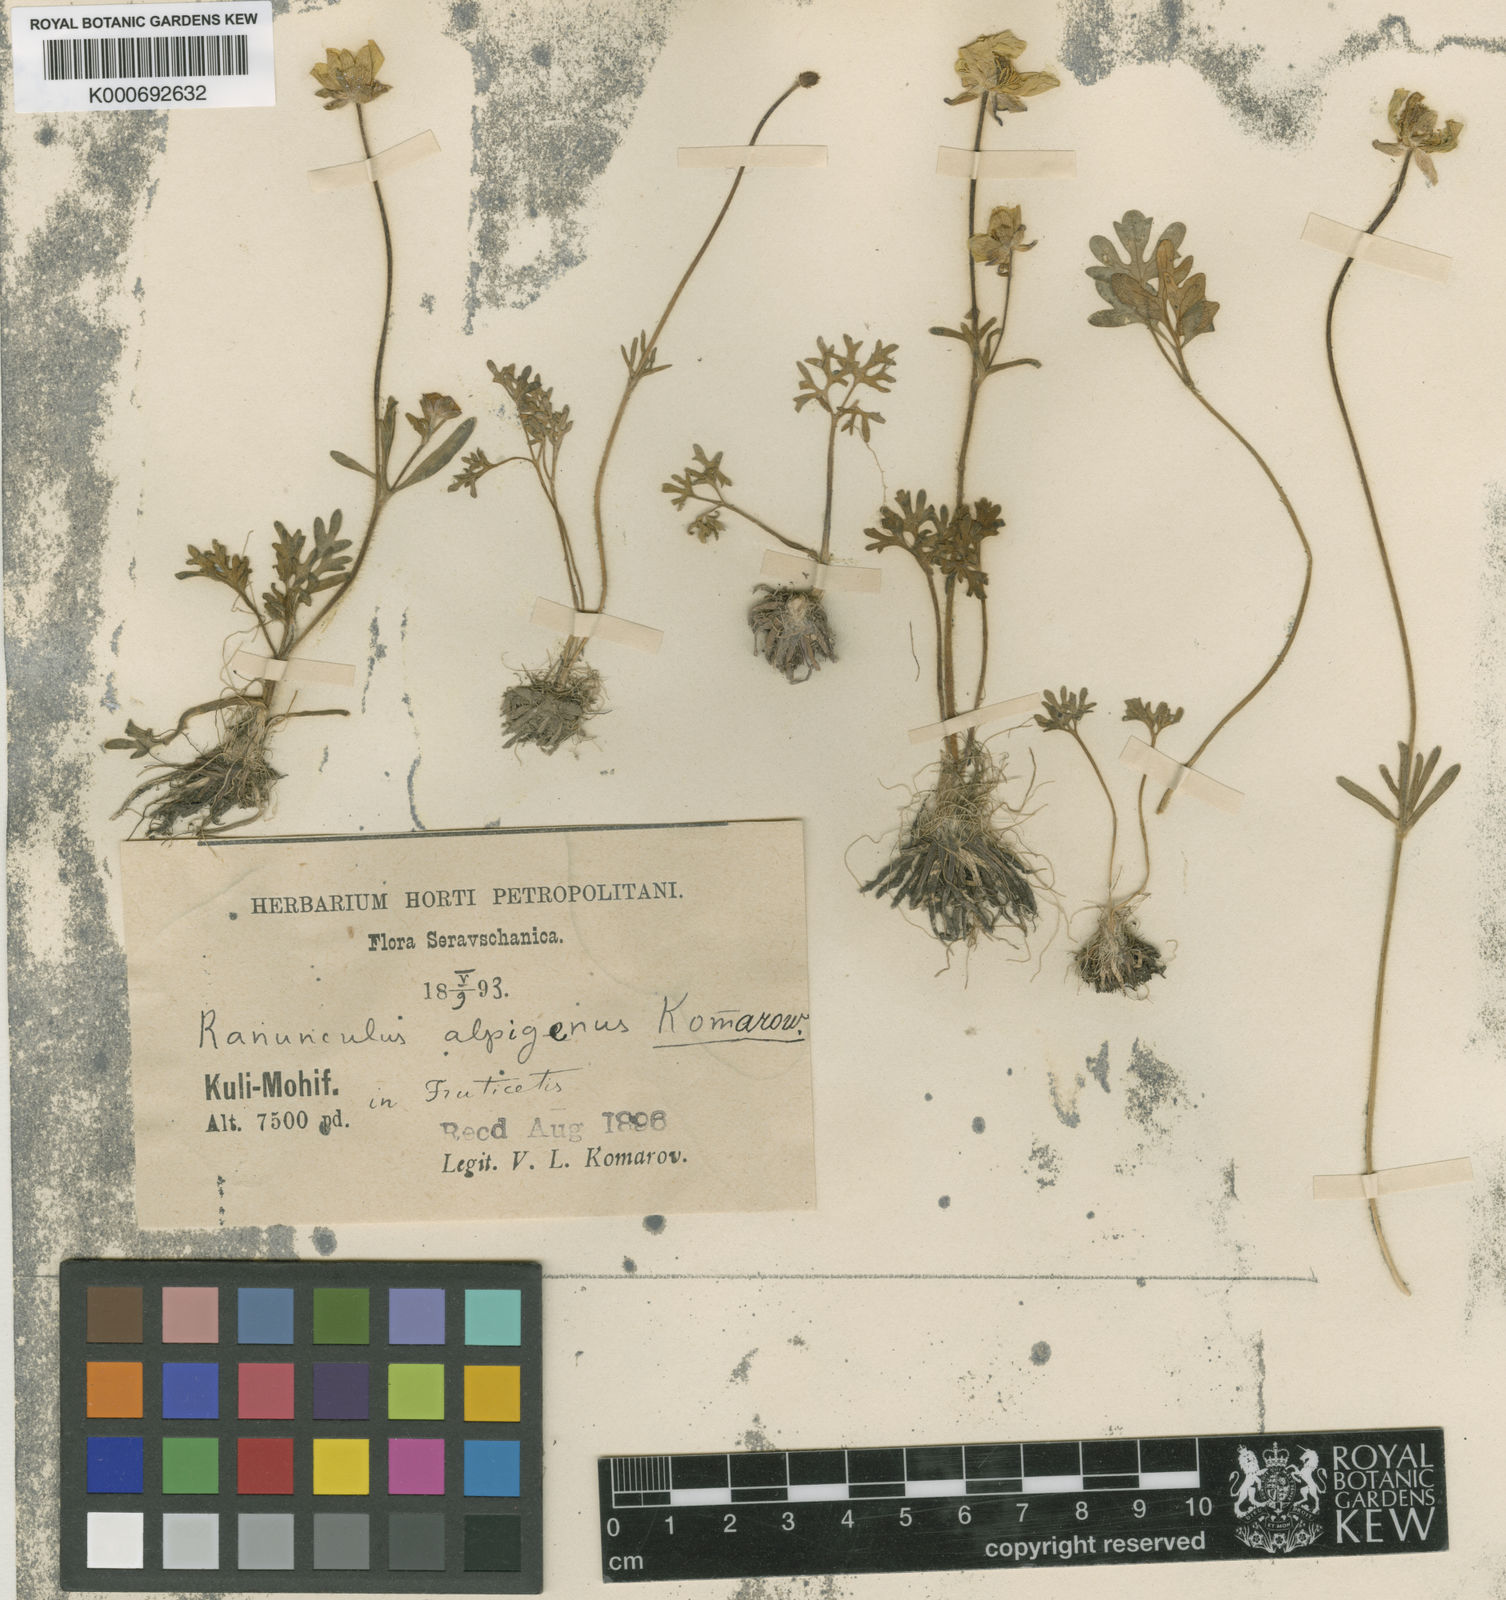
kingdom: Plantae
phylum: Tracheophyta
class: Magnoliopsida
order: Ranunculales
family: Ranunculaceae
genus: Ranunculus
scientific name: Ranunculus alpigenus
